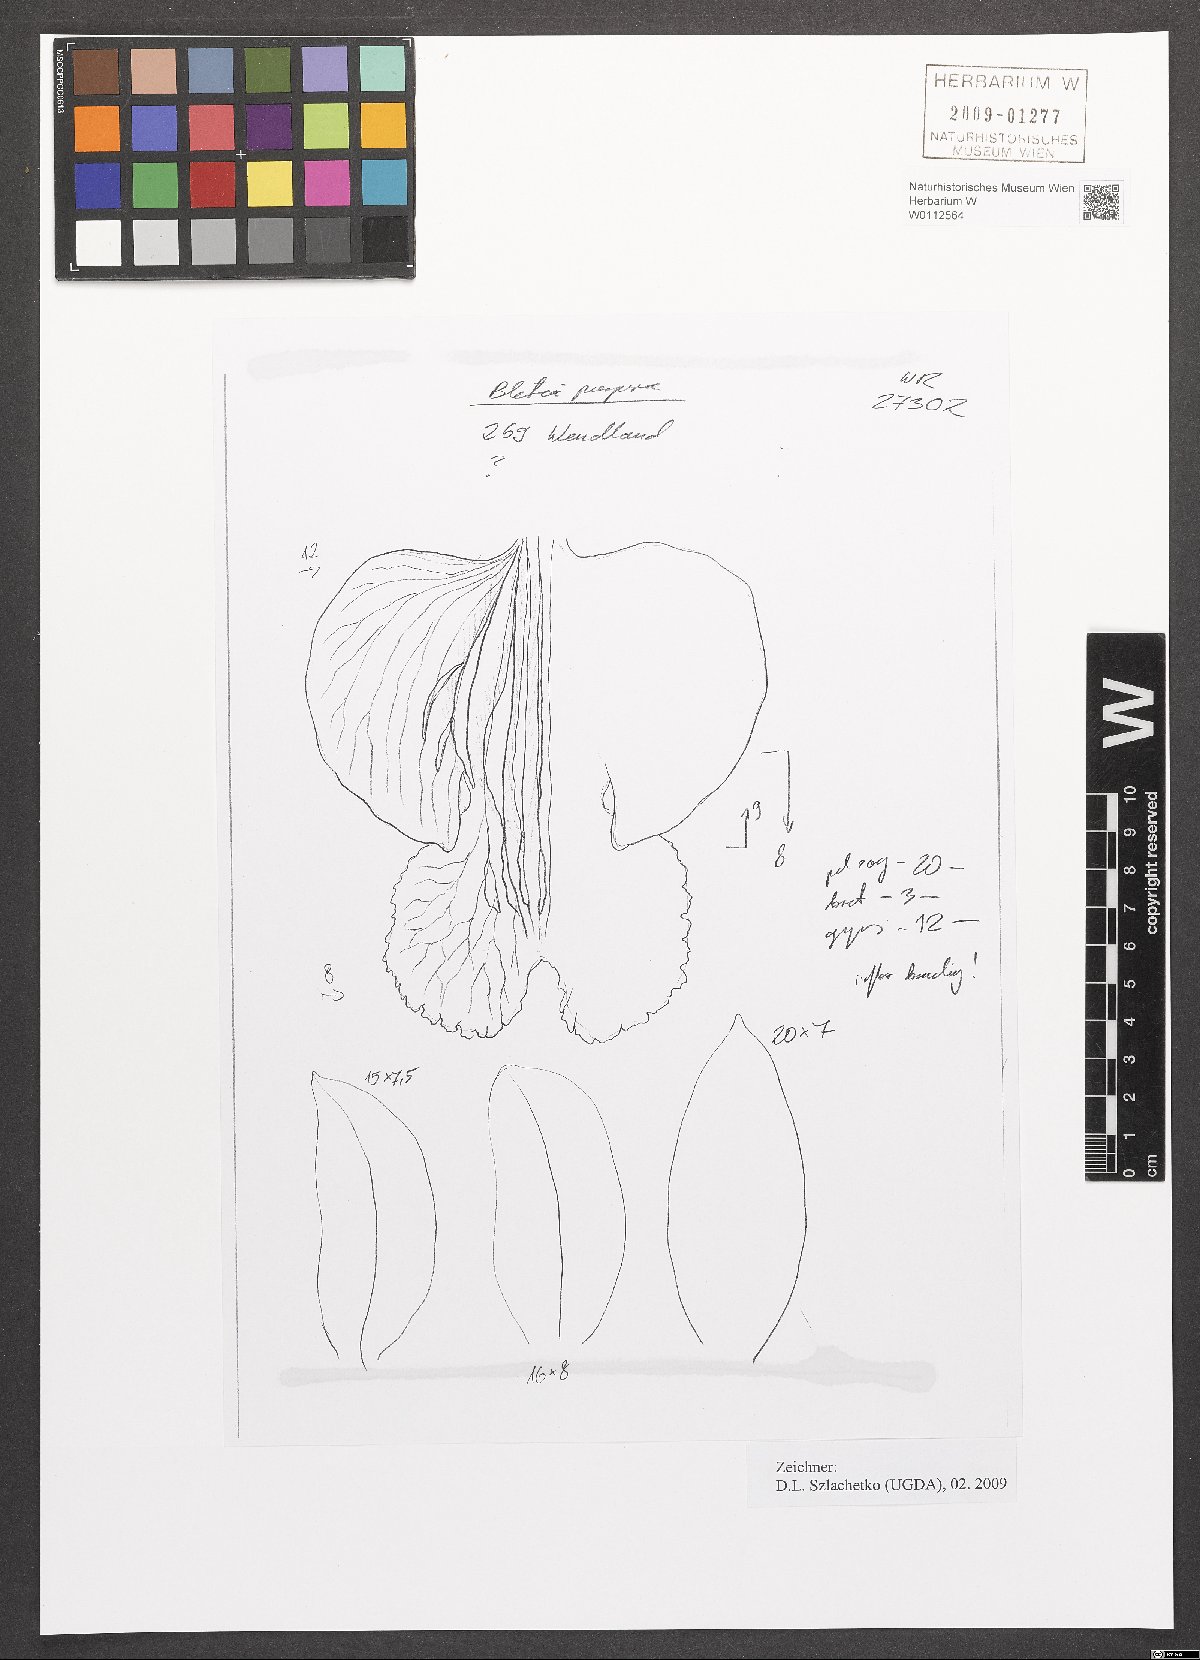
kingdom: Plantae
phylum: Tracheophyta
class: Liliopsida
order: Asparagales
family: Orchidaceae
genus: Bletia
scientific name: Bletia purpurea
